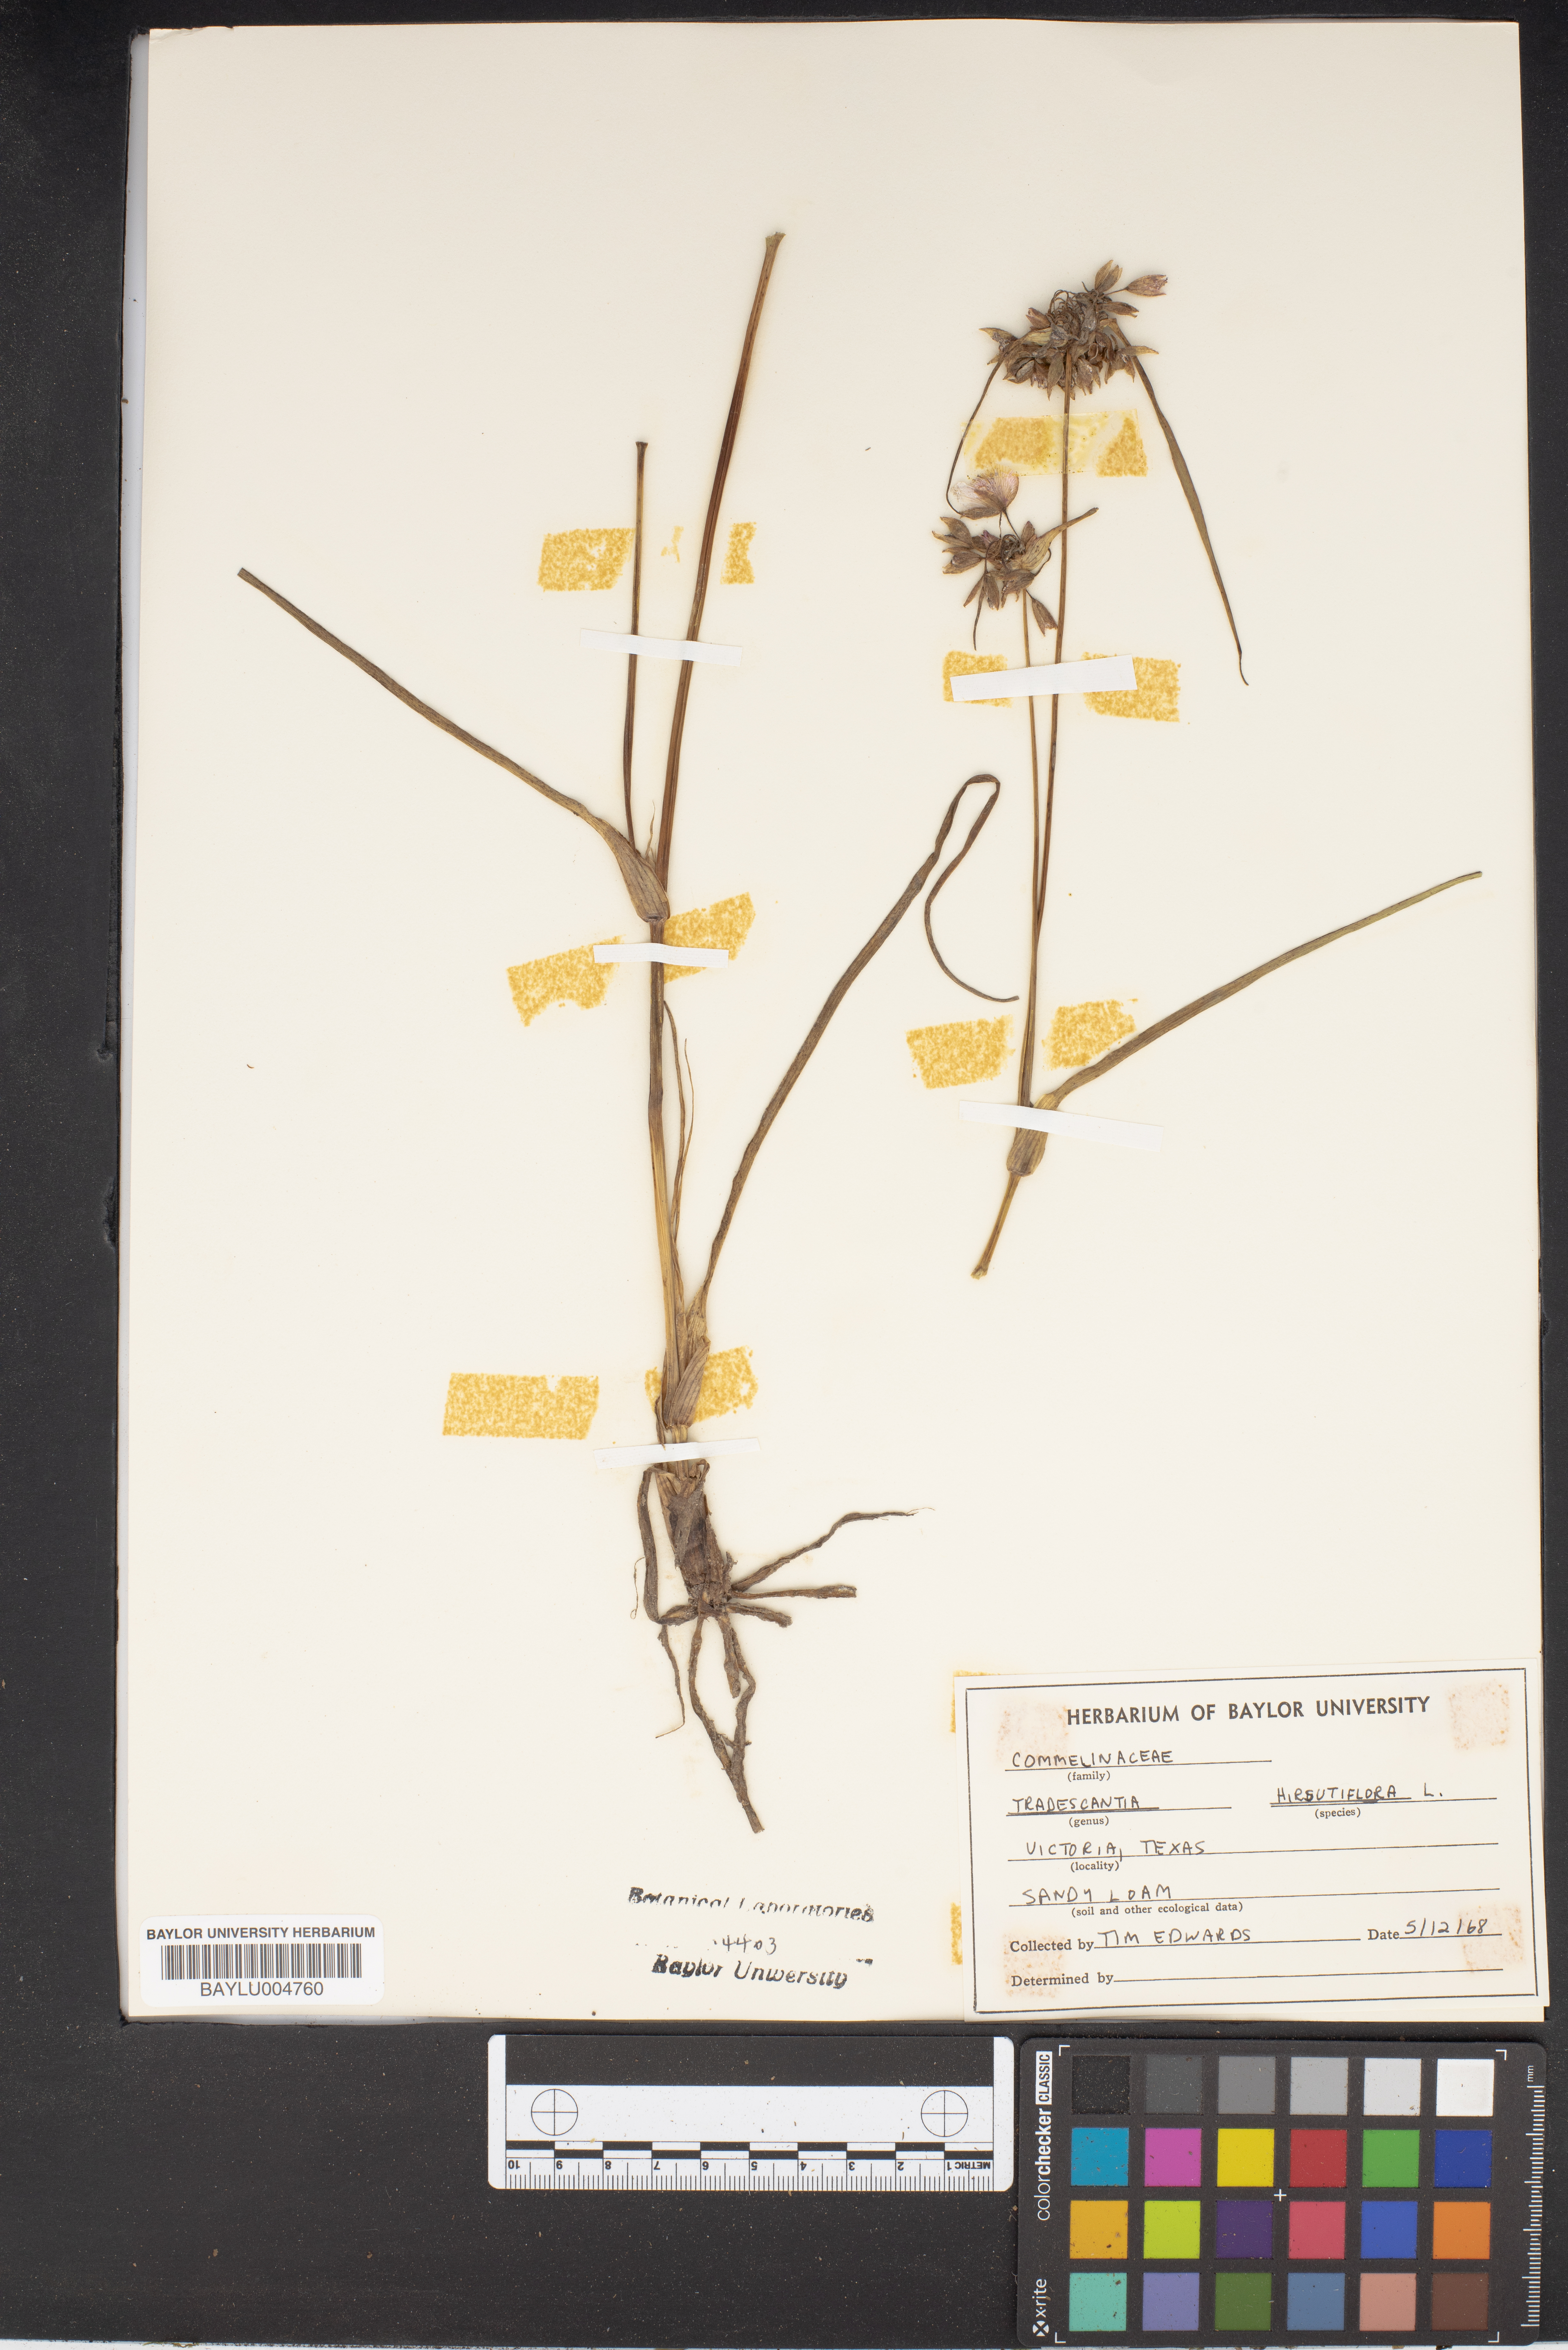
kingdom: Plantae
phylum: Tracheophyta
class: Liliopsida
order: Commelinales
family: Commelinaceae
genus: Tradescantia
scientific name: Tradescantia hirsutiflora
